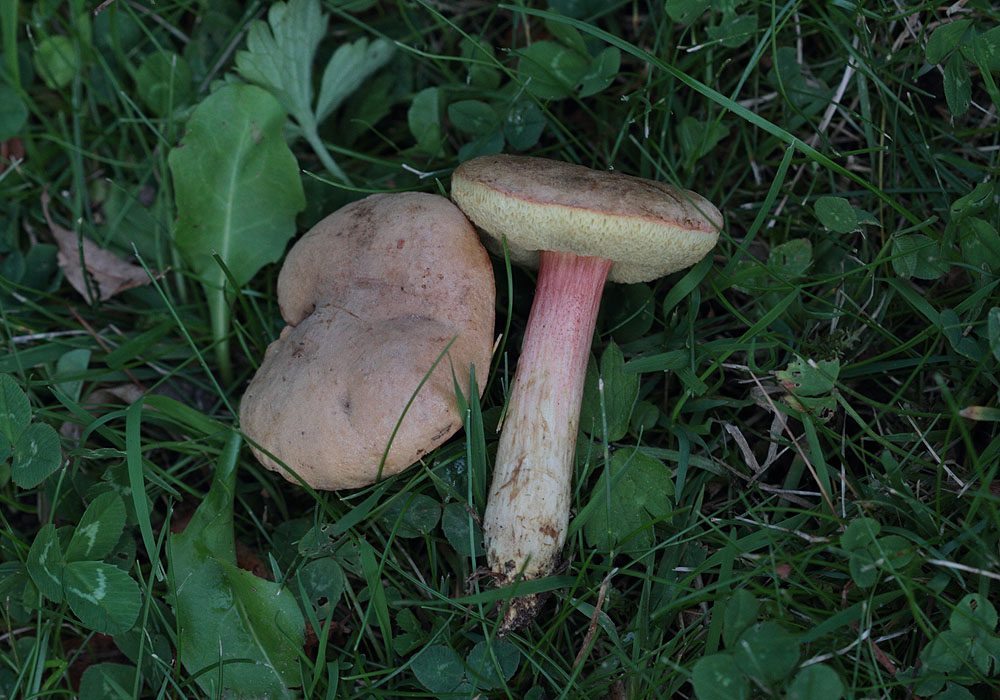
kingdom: Fungi
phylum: Basidiomycota
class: Agaricomycetes
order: Boletales
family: Boletaceae
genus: Xerocomellus
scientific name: Xerocomellus chrysenteron
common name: rødsprukken rørhat
